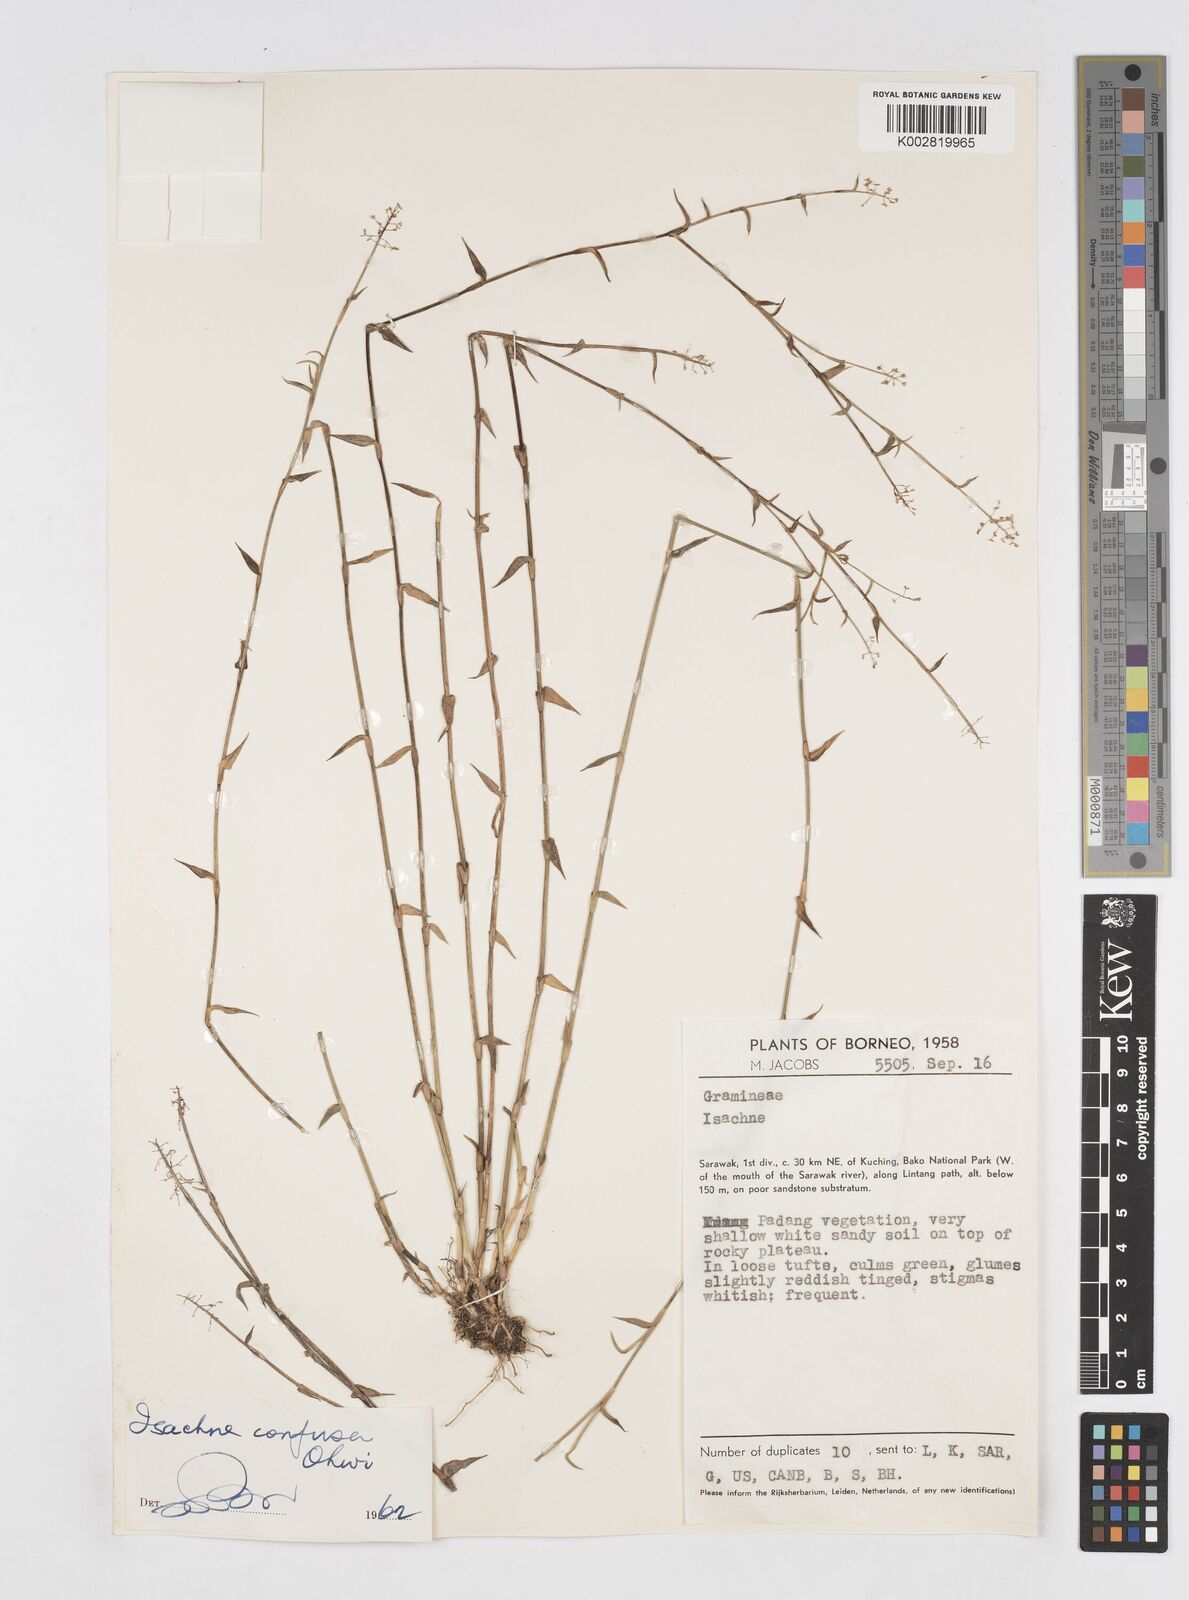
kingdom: Plantae
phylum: Tracheophyta
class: Liliopsida
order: Poales
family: Poaceae
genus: Isachne
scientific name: Isachne confusa
